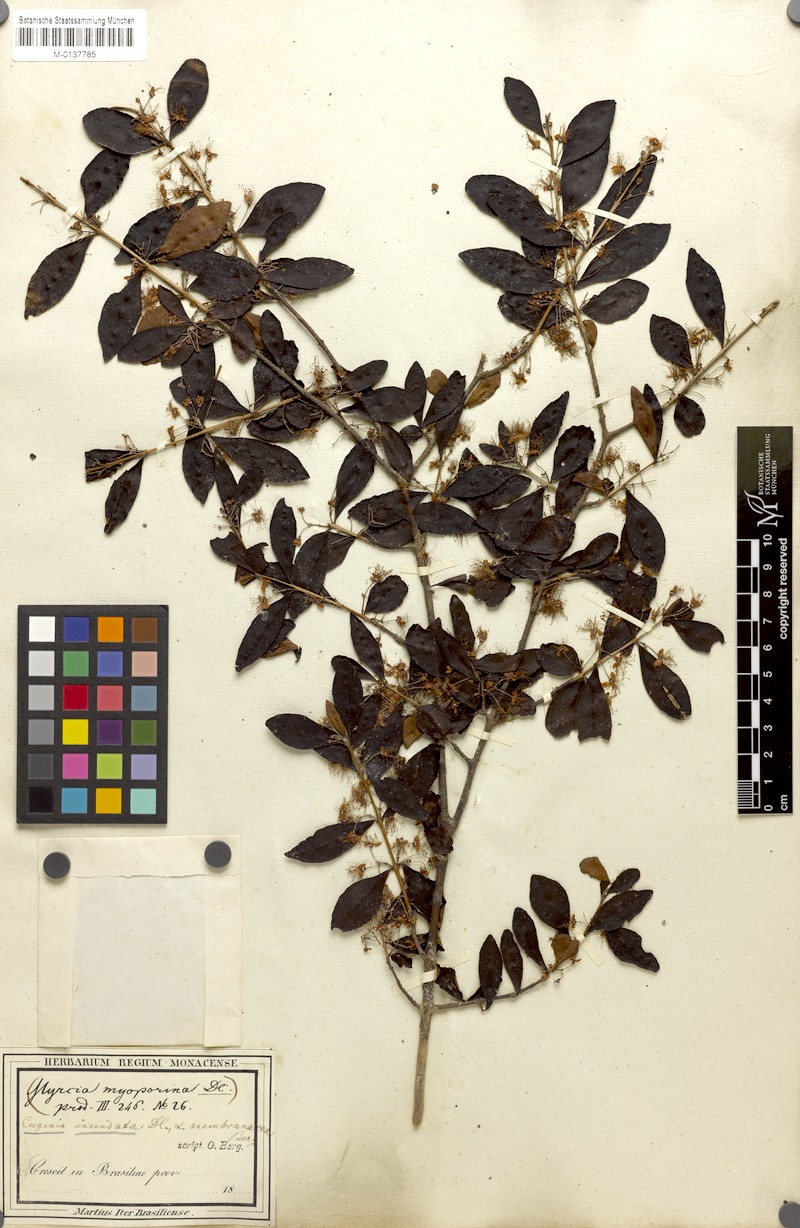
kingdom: Plantae
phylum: Tracheophyta
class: Magnoliopsida
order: Myrtales
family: Myrtaceae
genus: Eugenia
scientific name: Eugenia inundata
